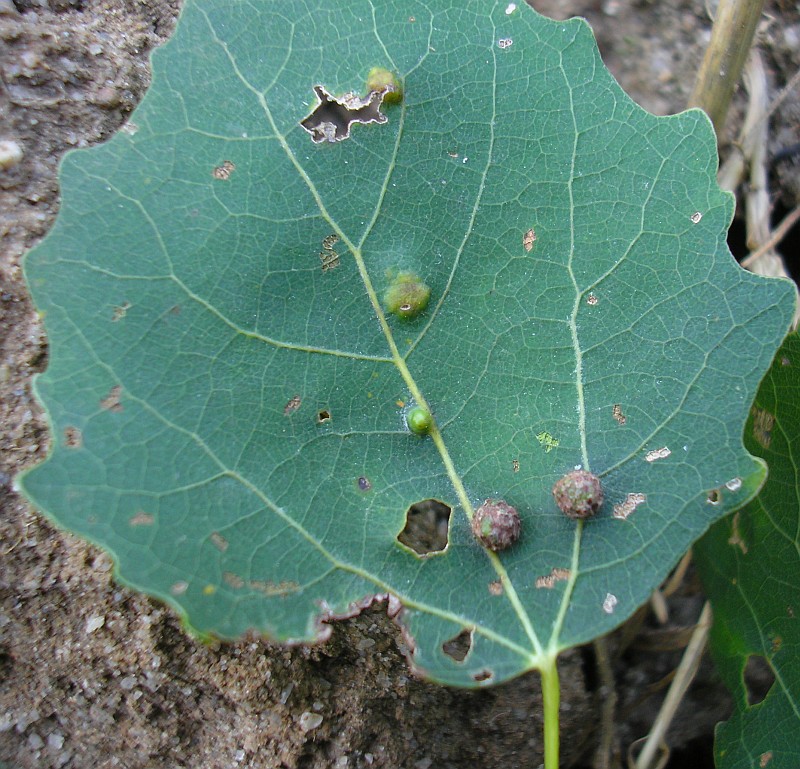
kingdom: Animalia
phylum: Arthropoda
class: Insecta
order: Diptera
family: Cecidomyiidae
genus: Harmandiola
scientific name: Harmandiola tremulae
